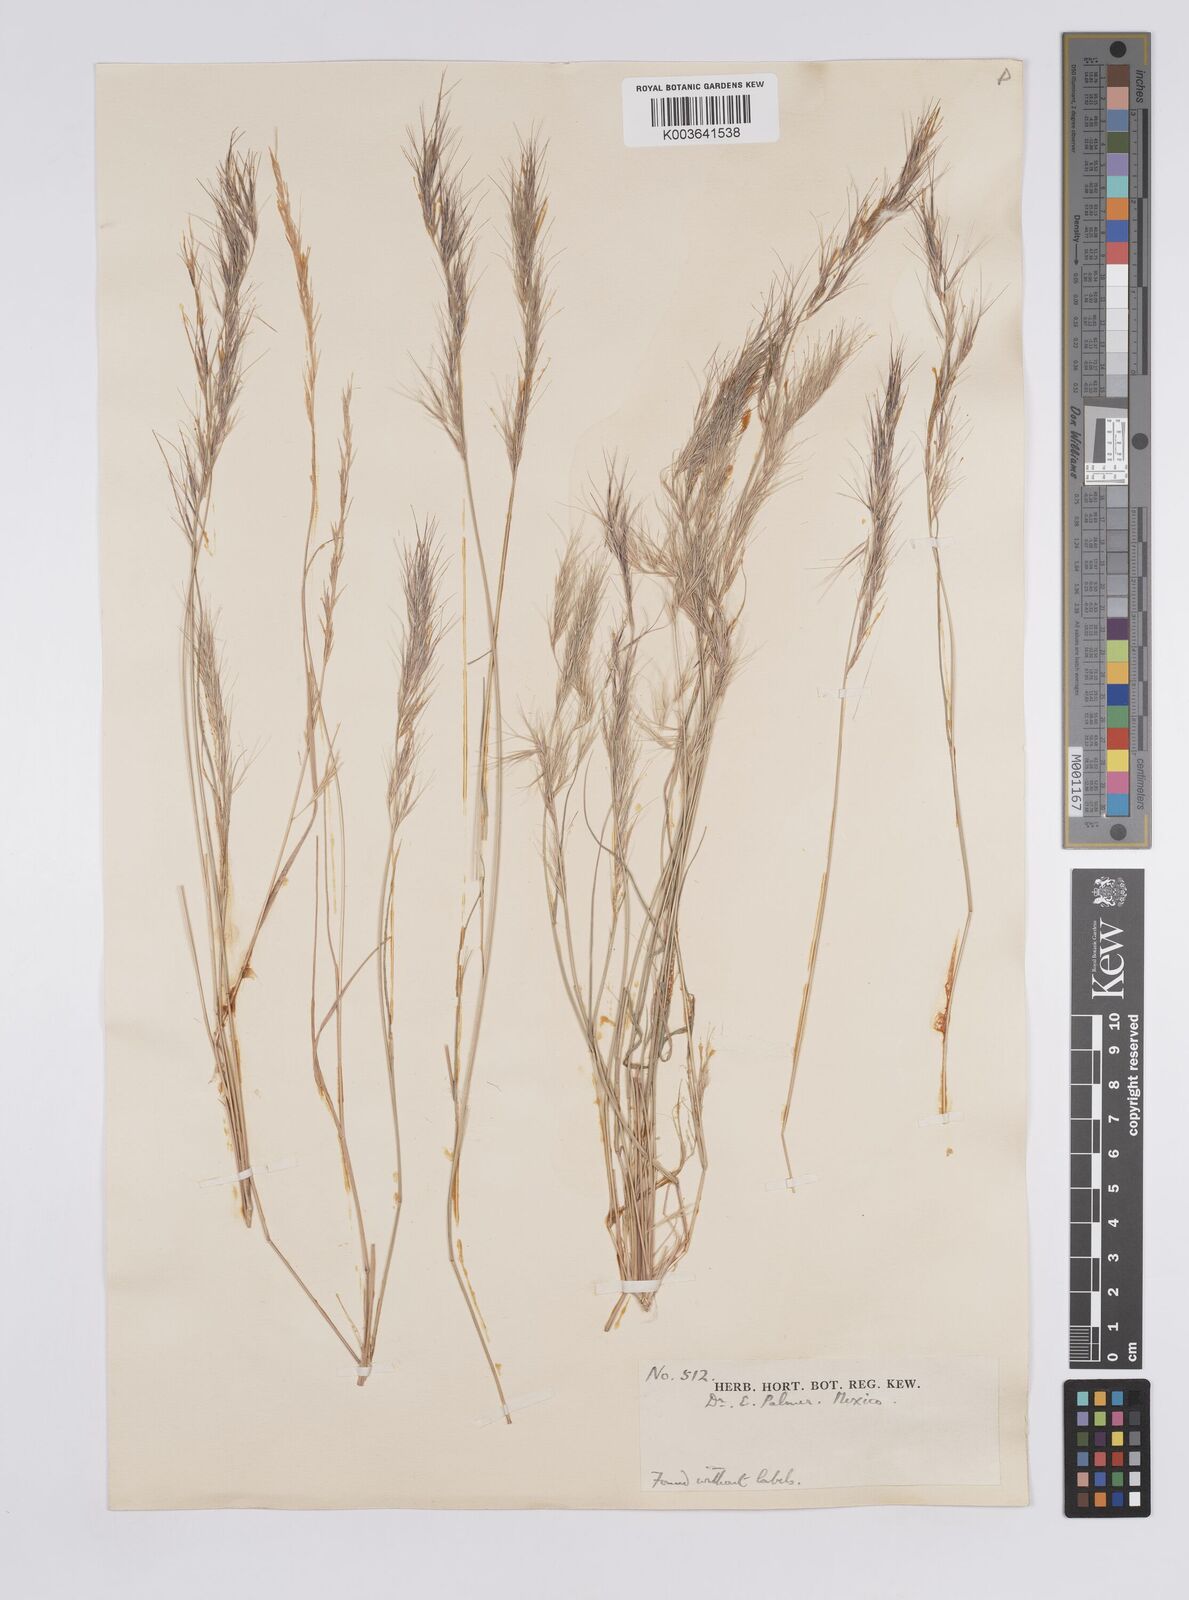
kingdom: Plantae
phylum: Tracheophyta
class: Liliopsida
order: Poales
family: Poaceae
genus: Aristida
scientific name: Aristida
